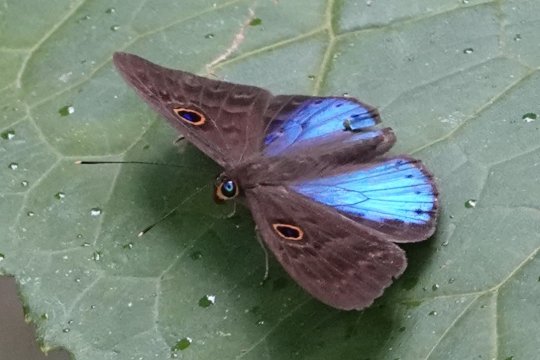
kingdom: Animalia
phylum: Cnidaria
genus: Eurybia
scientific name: Eurybia lycisca
